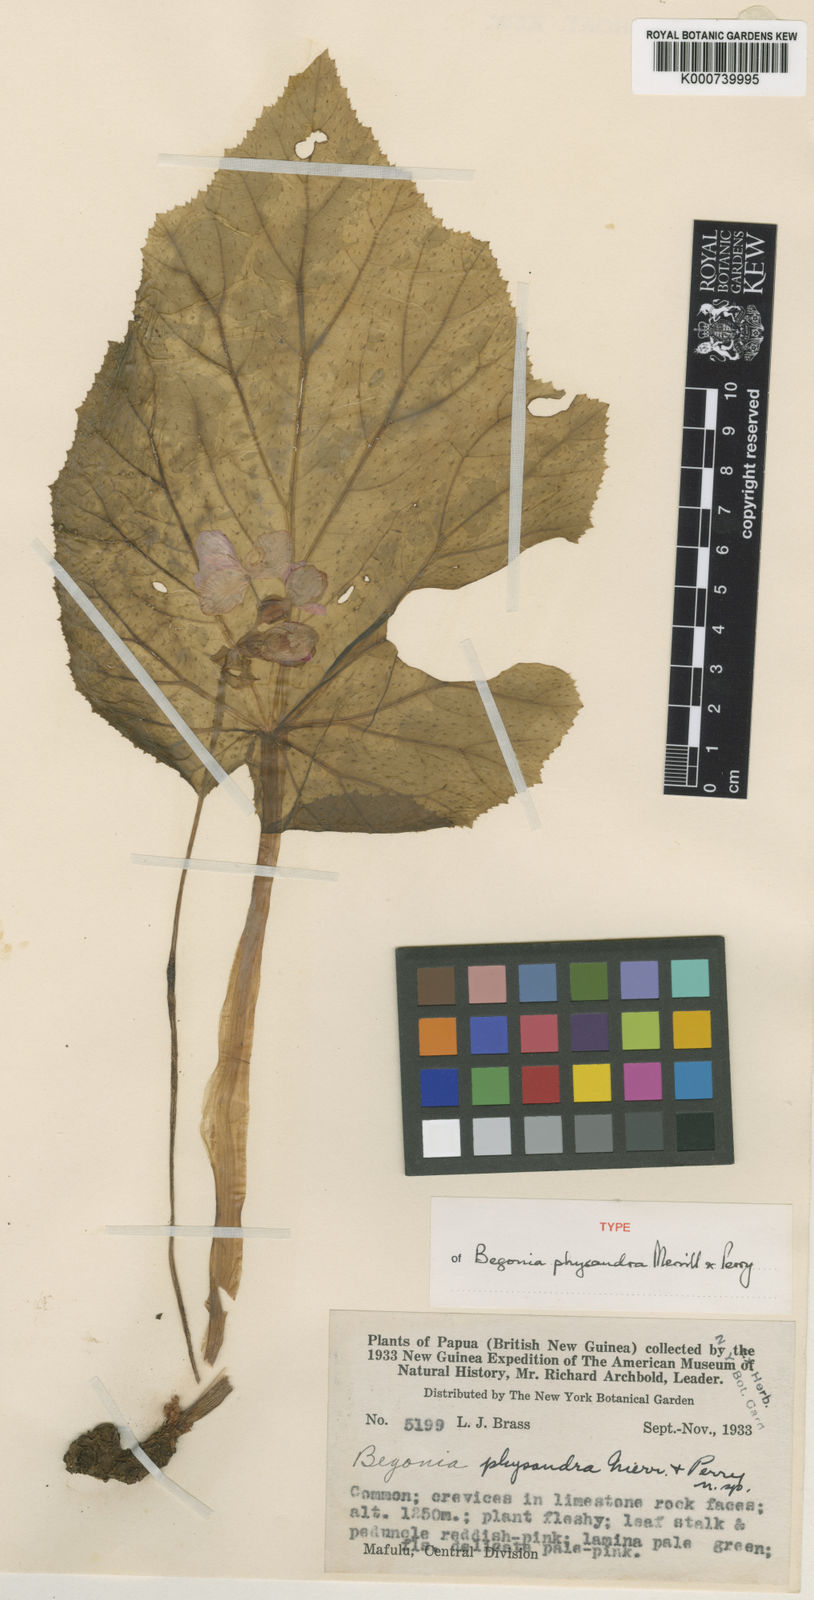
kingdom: Plantae
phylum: Tracheophyta
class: Magnoliopsida
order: Cucurbitales
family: Begoniaceae
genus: Begonia
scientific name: Begonia physandra
